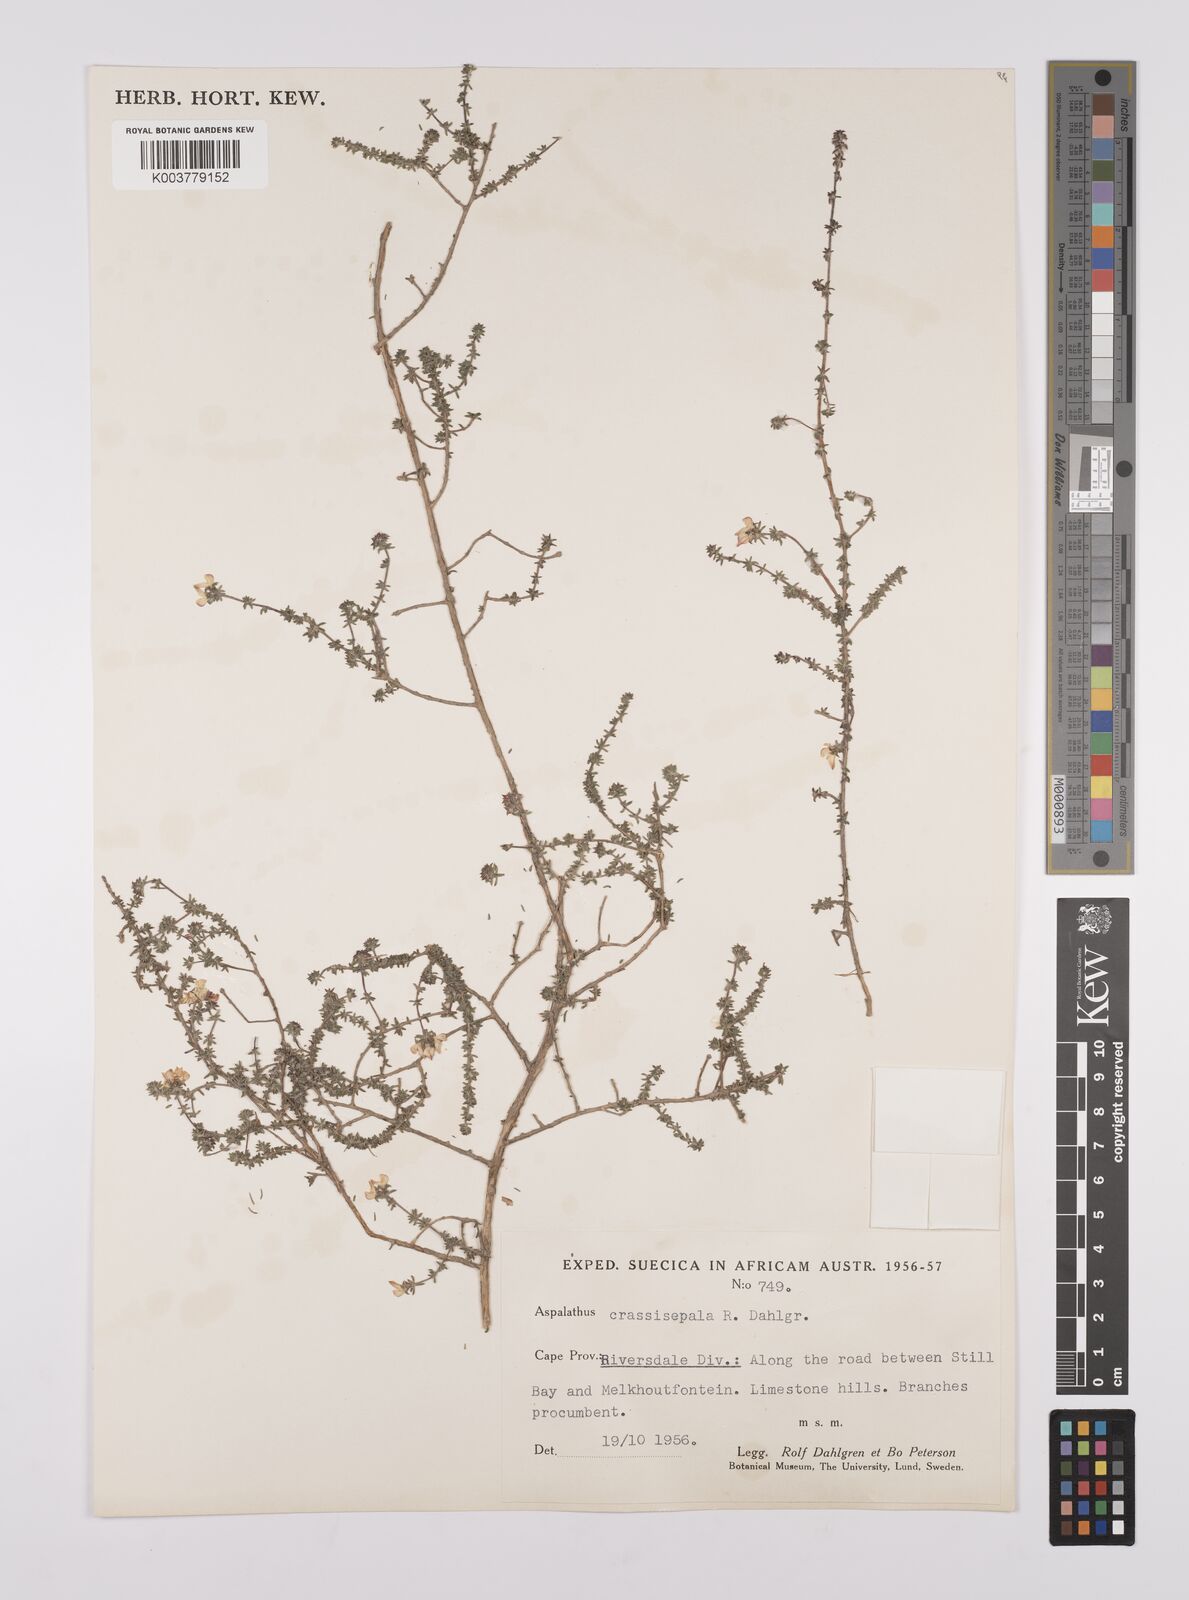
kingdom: Plantae
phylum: Tracheophyta
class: Magnoliopsida
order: Fabales
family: Fabaceae
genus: Aspalathus
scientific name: Aspalathus crassisepala
